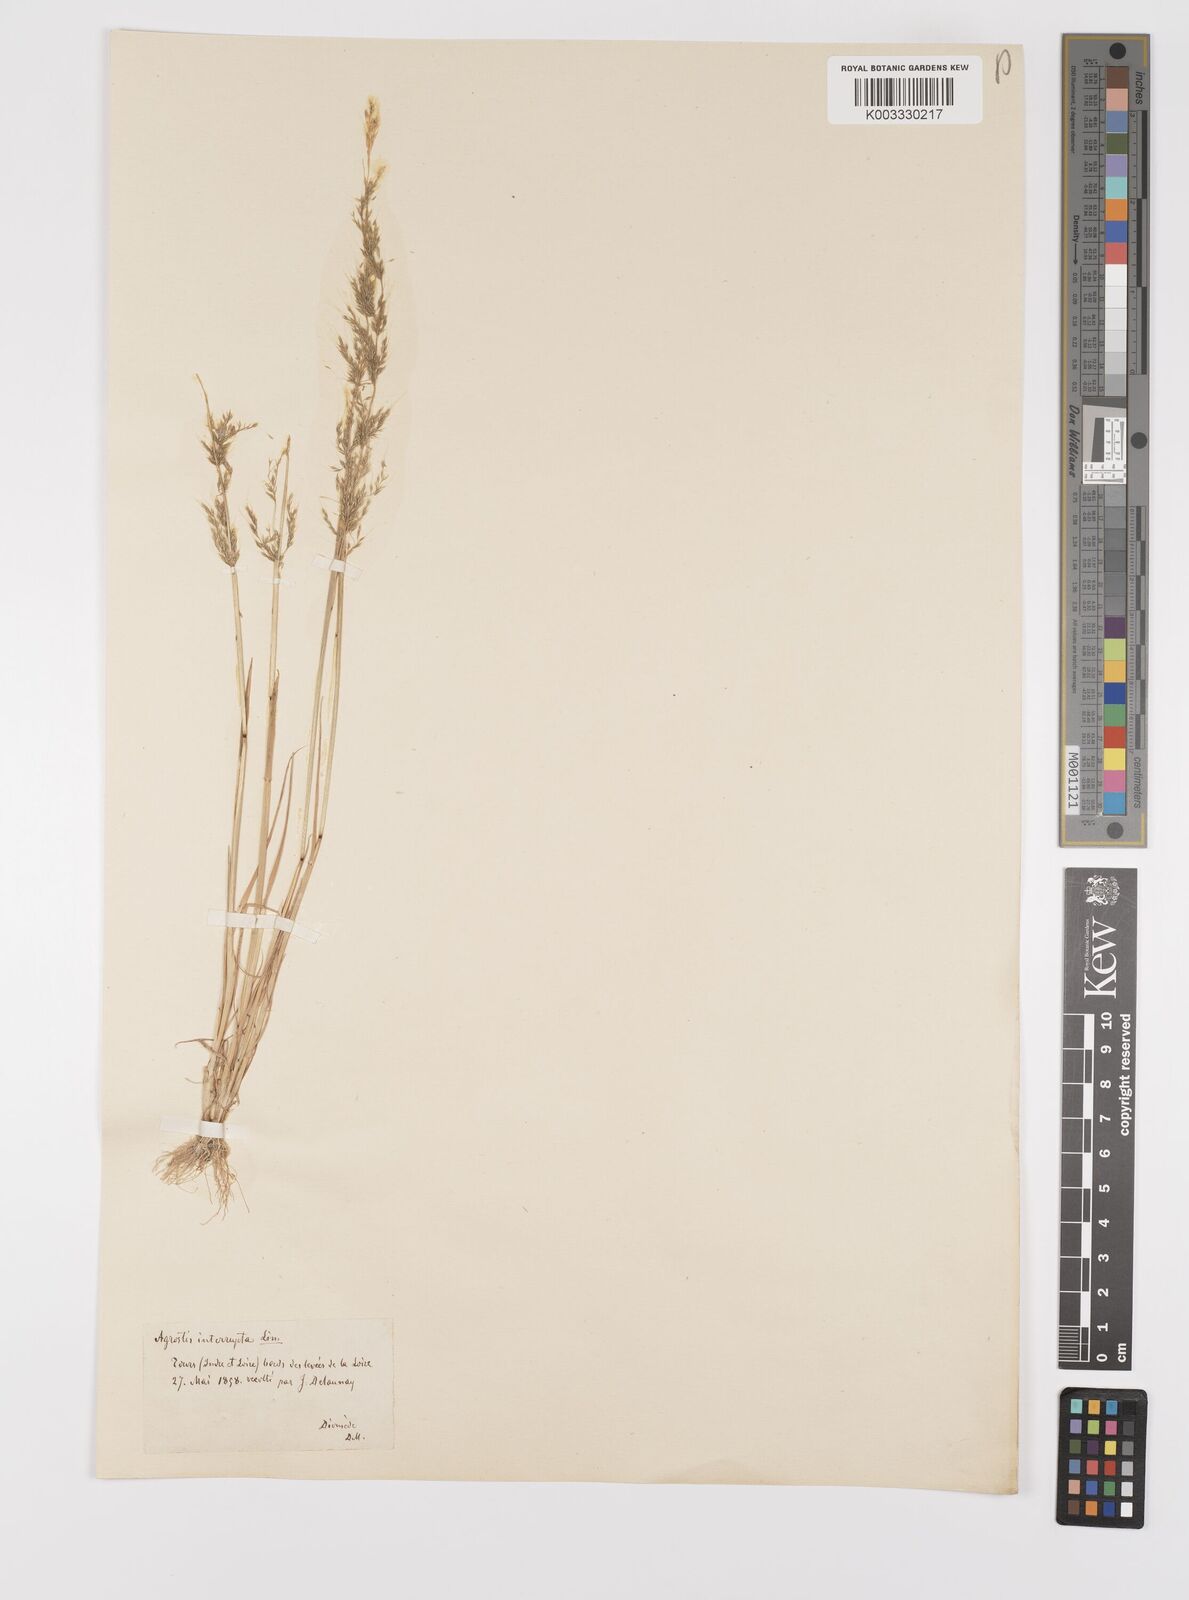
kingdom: Plantae
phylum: Tracheophyta
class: Liliopsida
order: Poales
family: Poaceae
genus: Apera
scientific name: Apera interrupta
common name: Dense silky-bent
